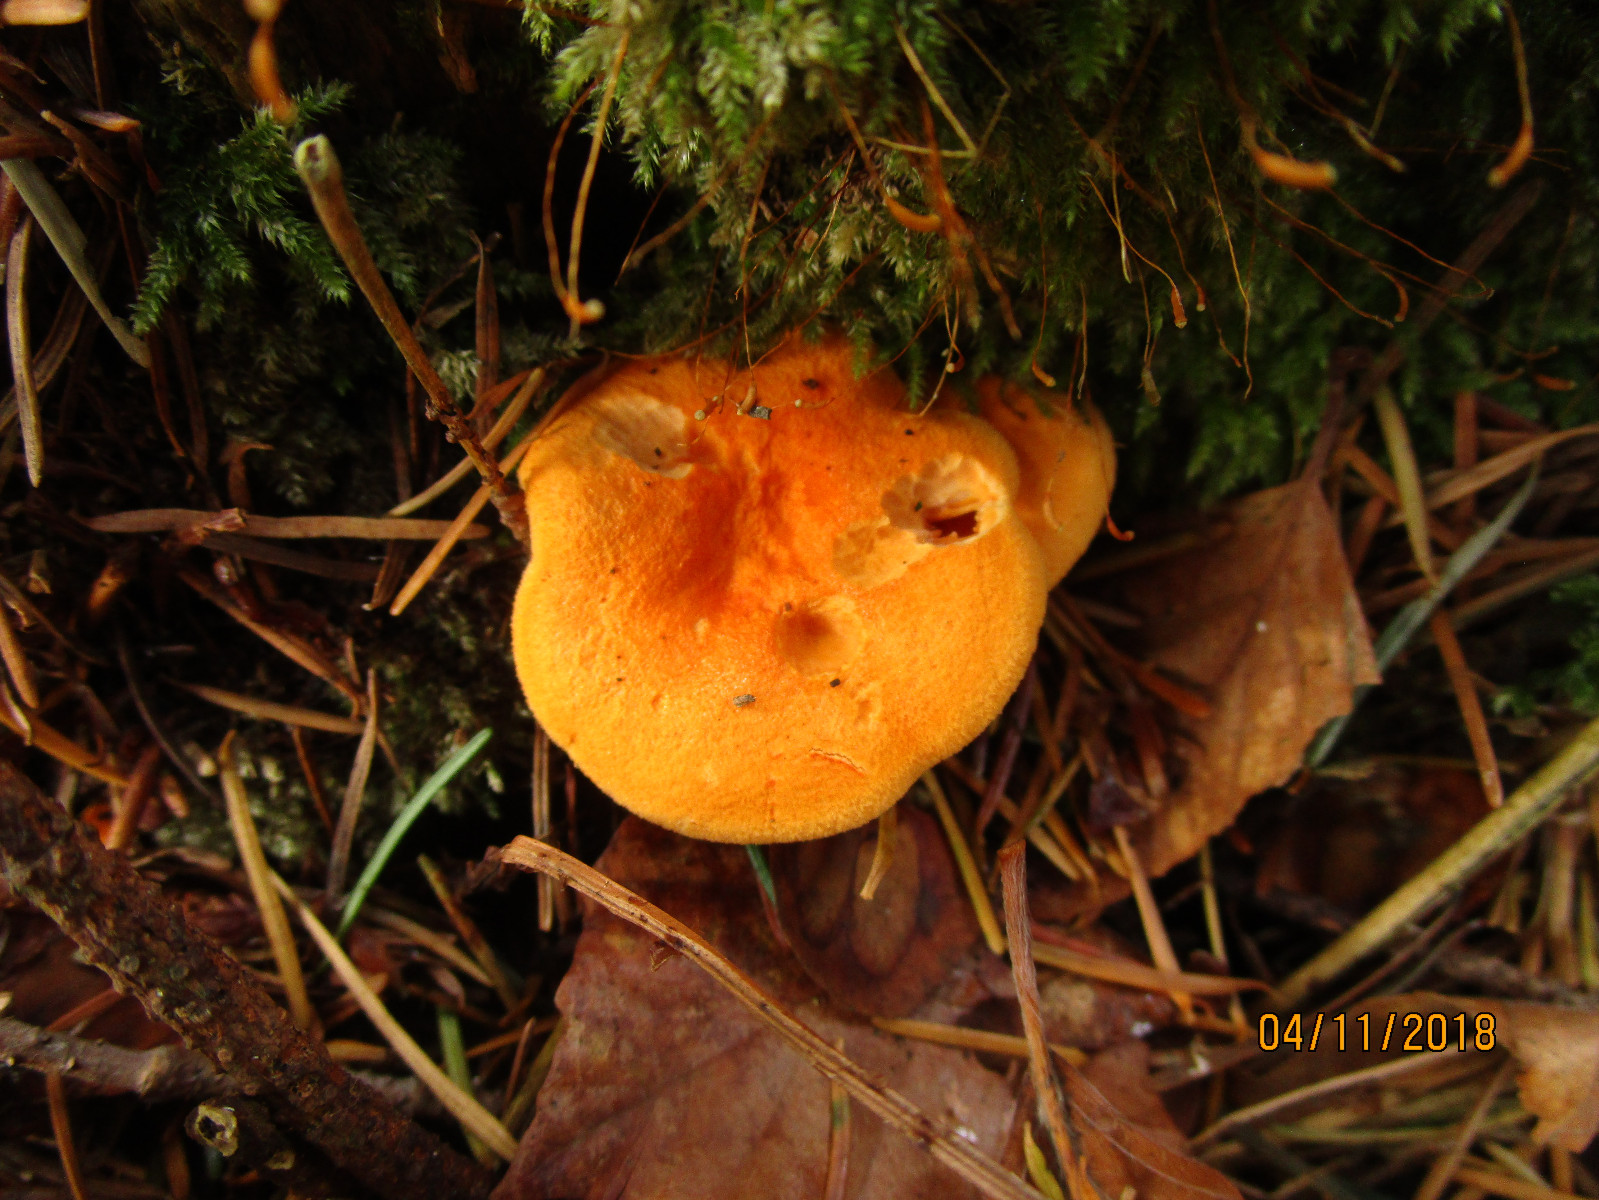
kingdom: Fungi
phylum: Basidiomycota
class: Agaricomycetes
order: Boletales
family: Hygrophoropsidaceae
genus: Hygrophoropsis
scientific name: Hygrophoropsis aurantiaca
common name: almindelig orangekantarel
